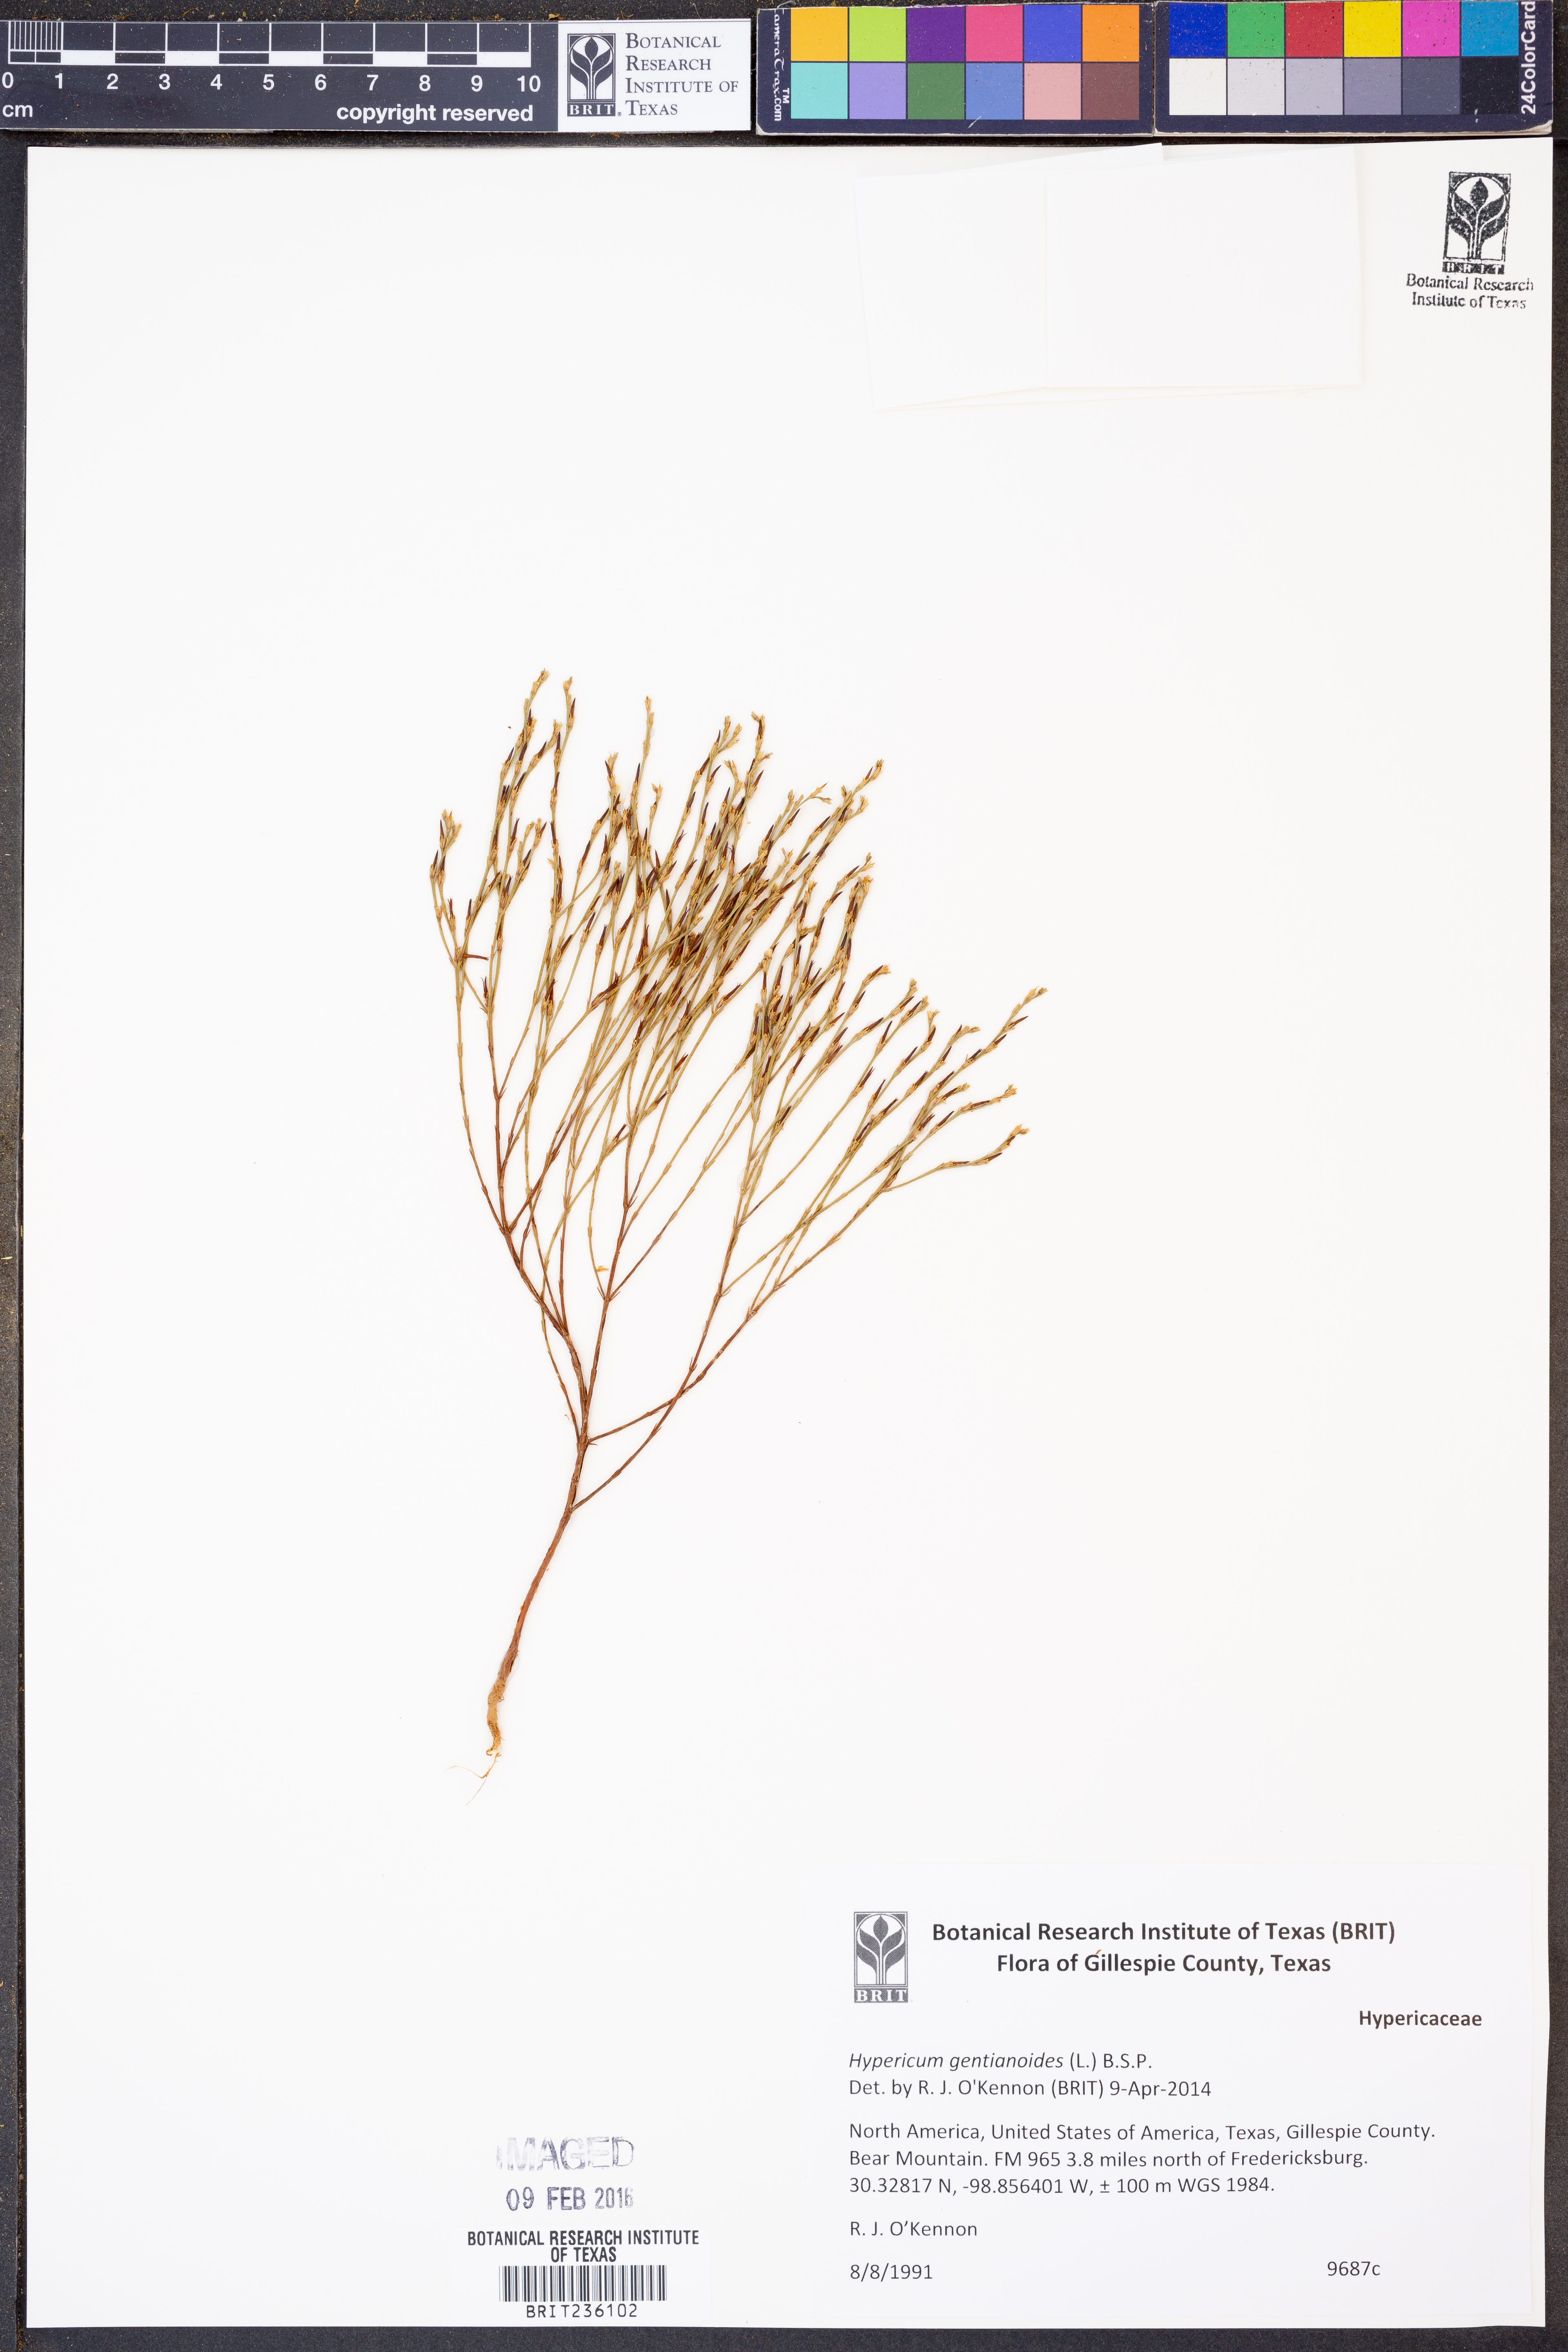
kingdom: Plantae
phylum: Tracheophyta
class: Magnoliopsida
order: Malpighiales
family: Hypericaceae
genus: Hypericum
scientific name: Hypericum gentianoides
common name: Gentian-leaved st. john's-wort
